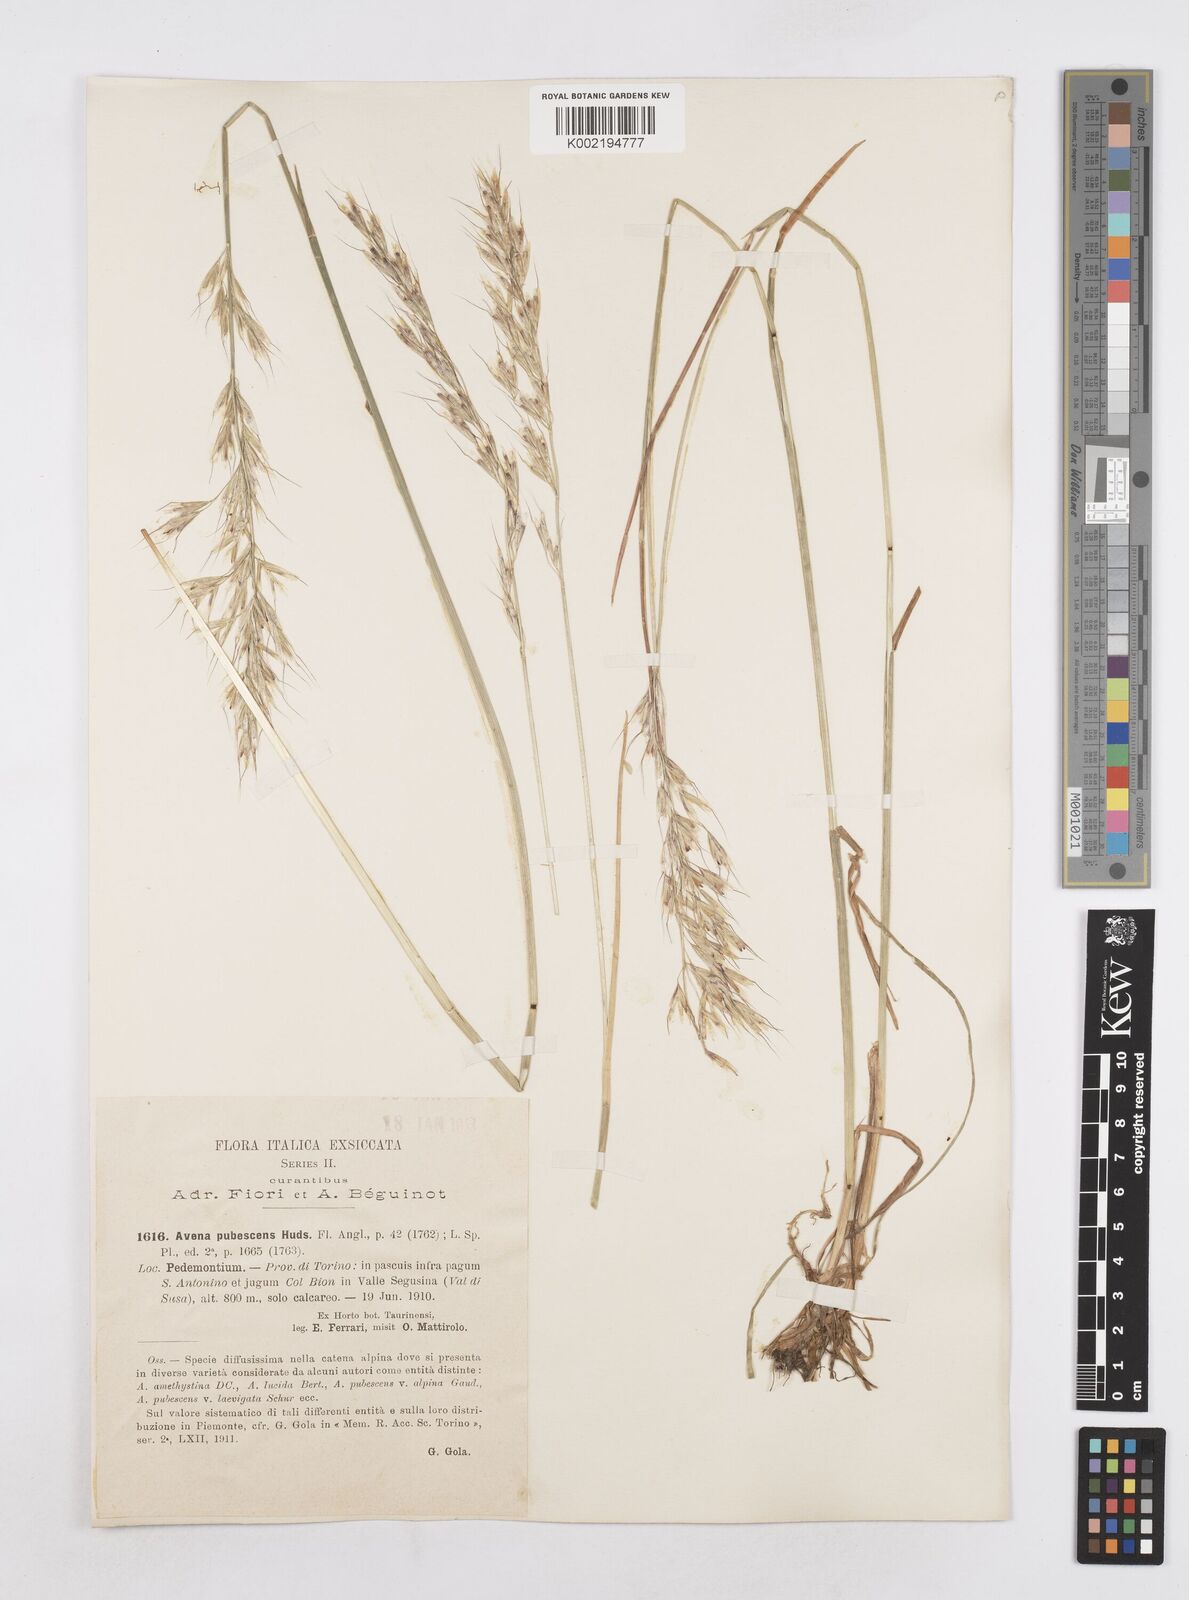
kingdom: Plantae
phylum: Tracheophyta
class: Liliopsida
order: Poales
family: Poaceae
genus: Avenula
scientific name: Avenula pubescens
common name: Downy alpine oatgrass
